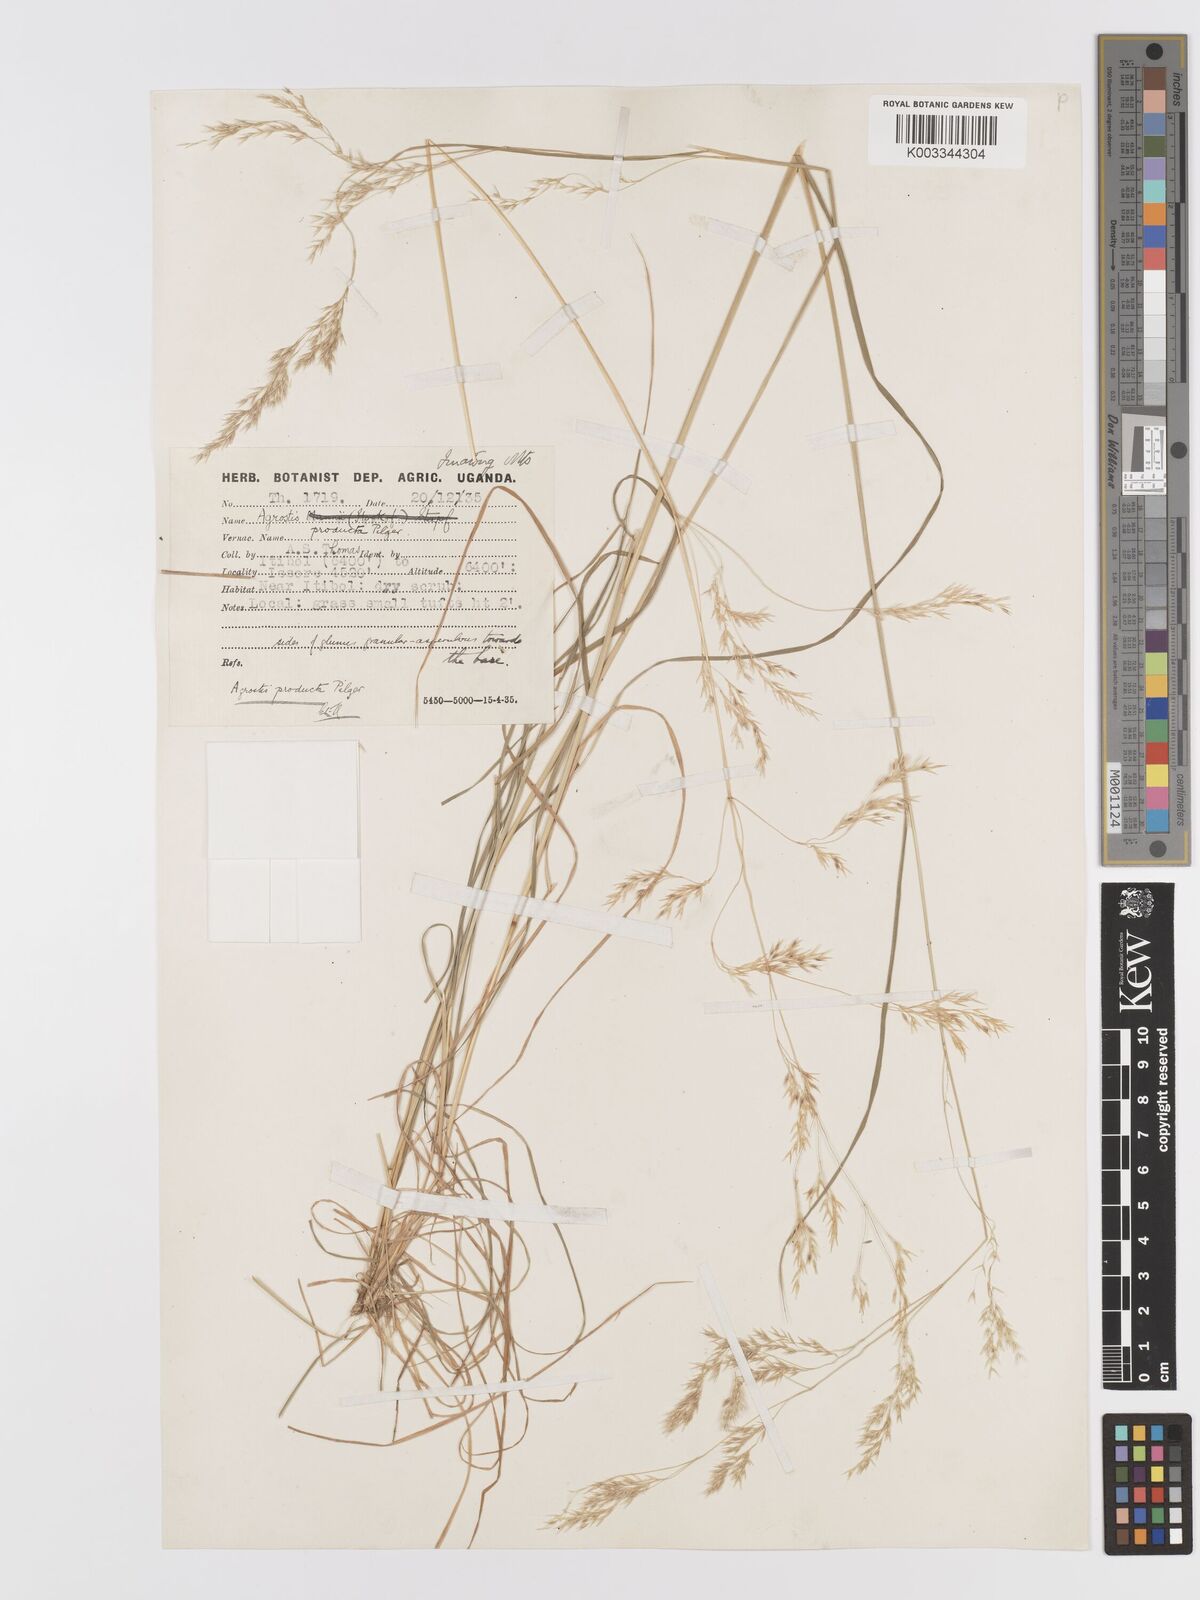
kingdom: Plantae
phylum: Tracheophyta
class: Liliopsida
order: Poales
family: Poaceae
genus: Agrostis
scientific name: Agrostis producta
